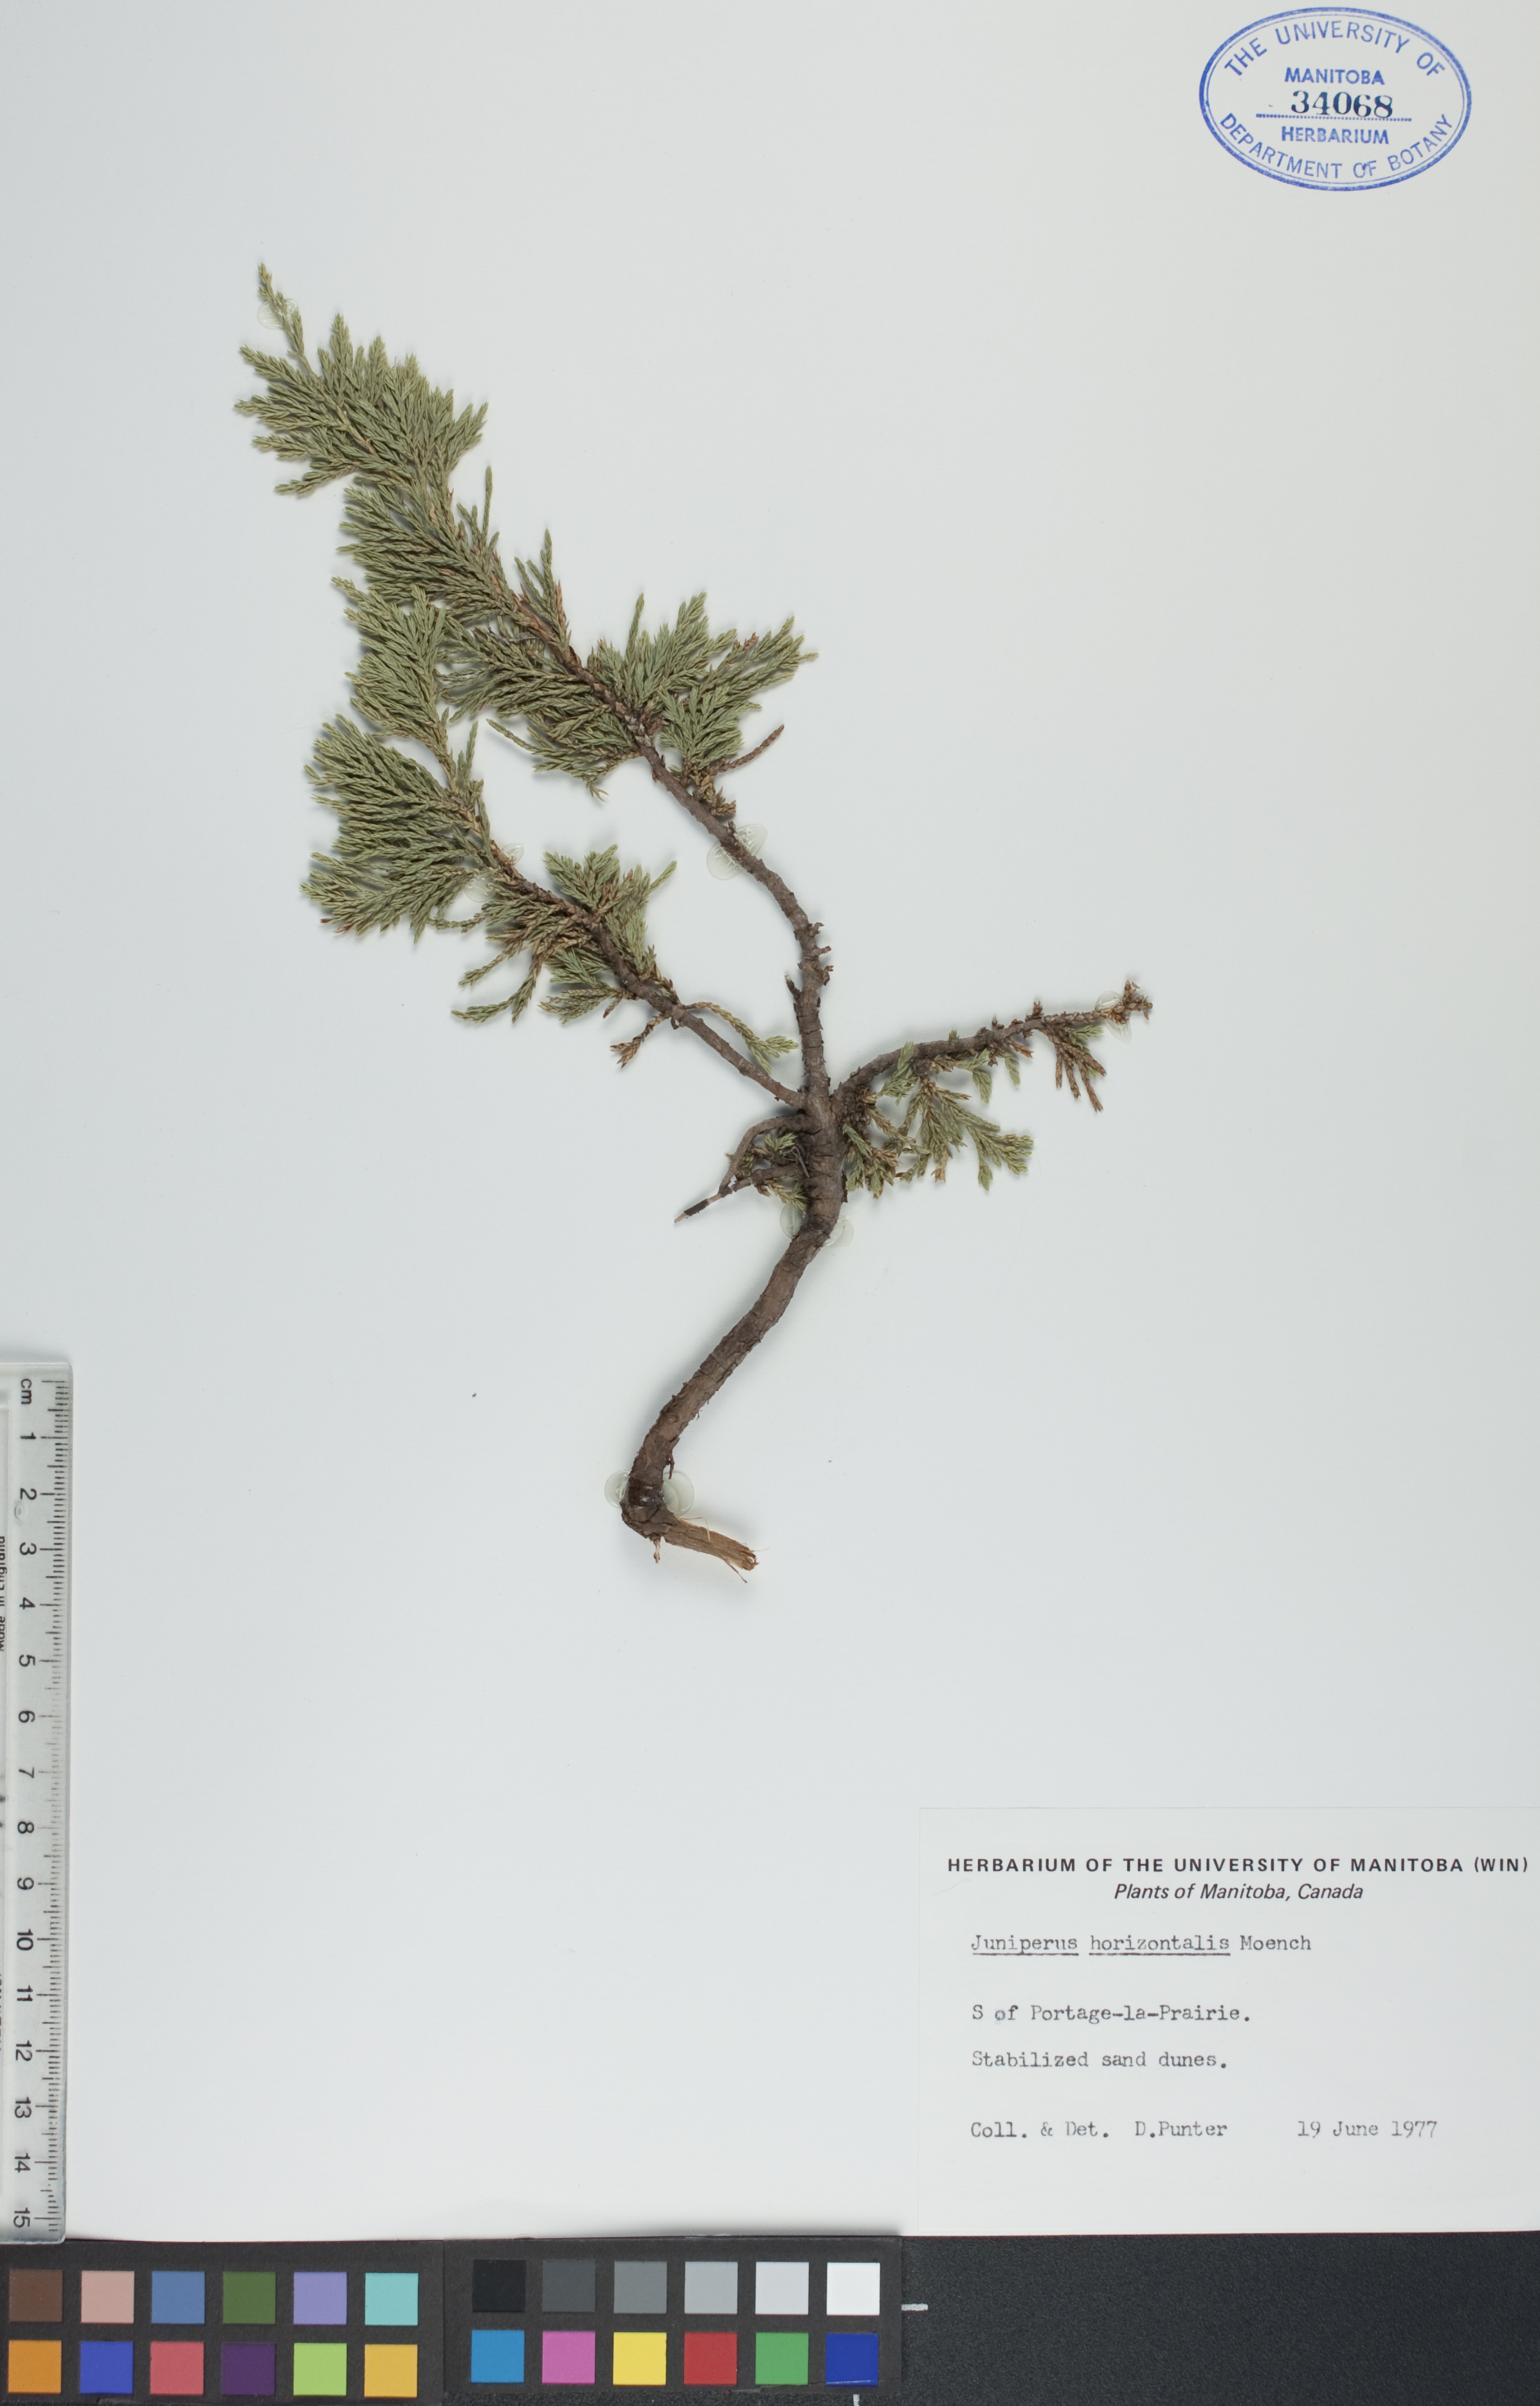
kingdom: Plantae
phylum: Tracheophyta
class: Pinopsida
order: Pinales
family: Cupressaceae
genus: Juniperus
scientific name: Juniperus horizontalis
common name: Creeping juniper
